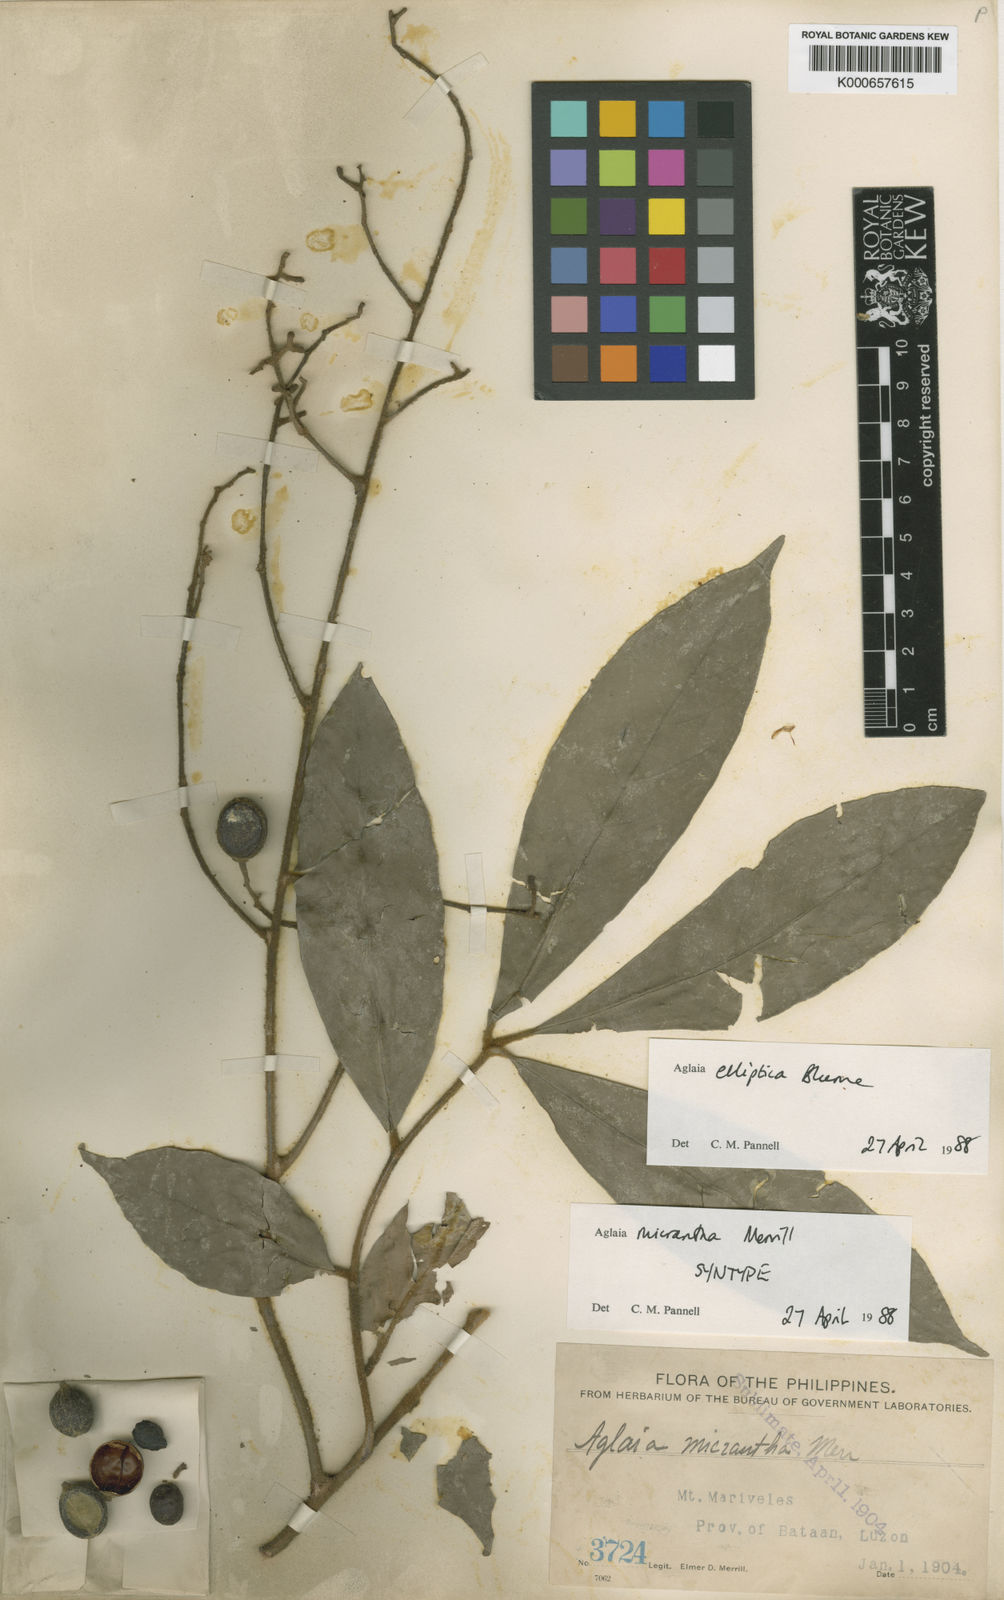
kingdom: Plantae
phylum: Tracheophyta
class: Magnoliopsida
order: Sapindales
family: Meliaceae
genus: Aglaia
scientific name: Aglaia elliptica
